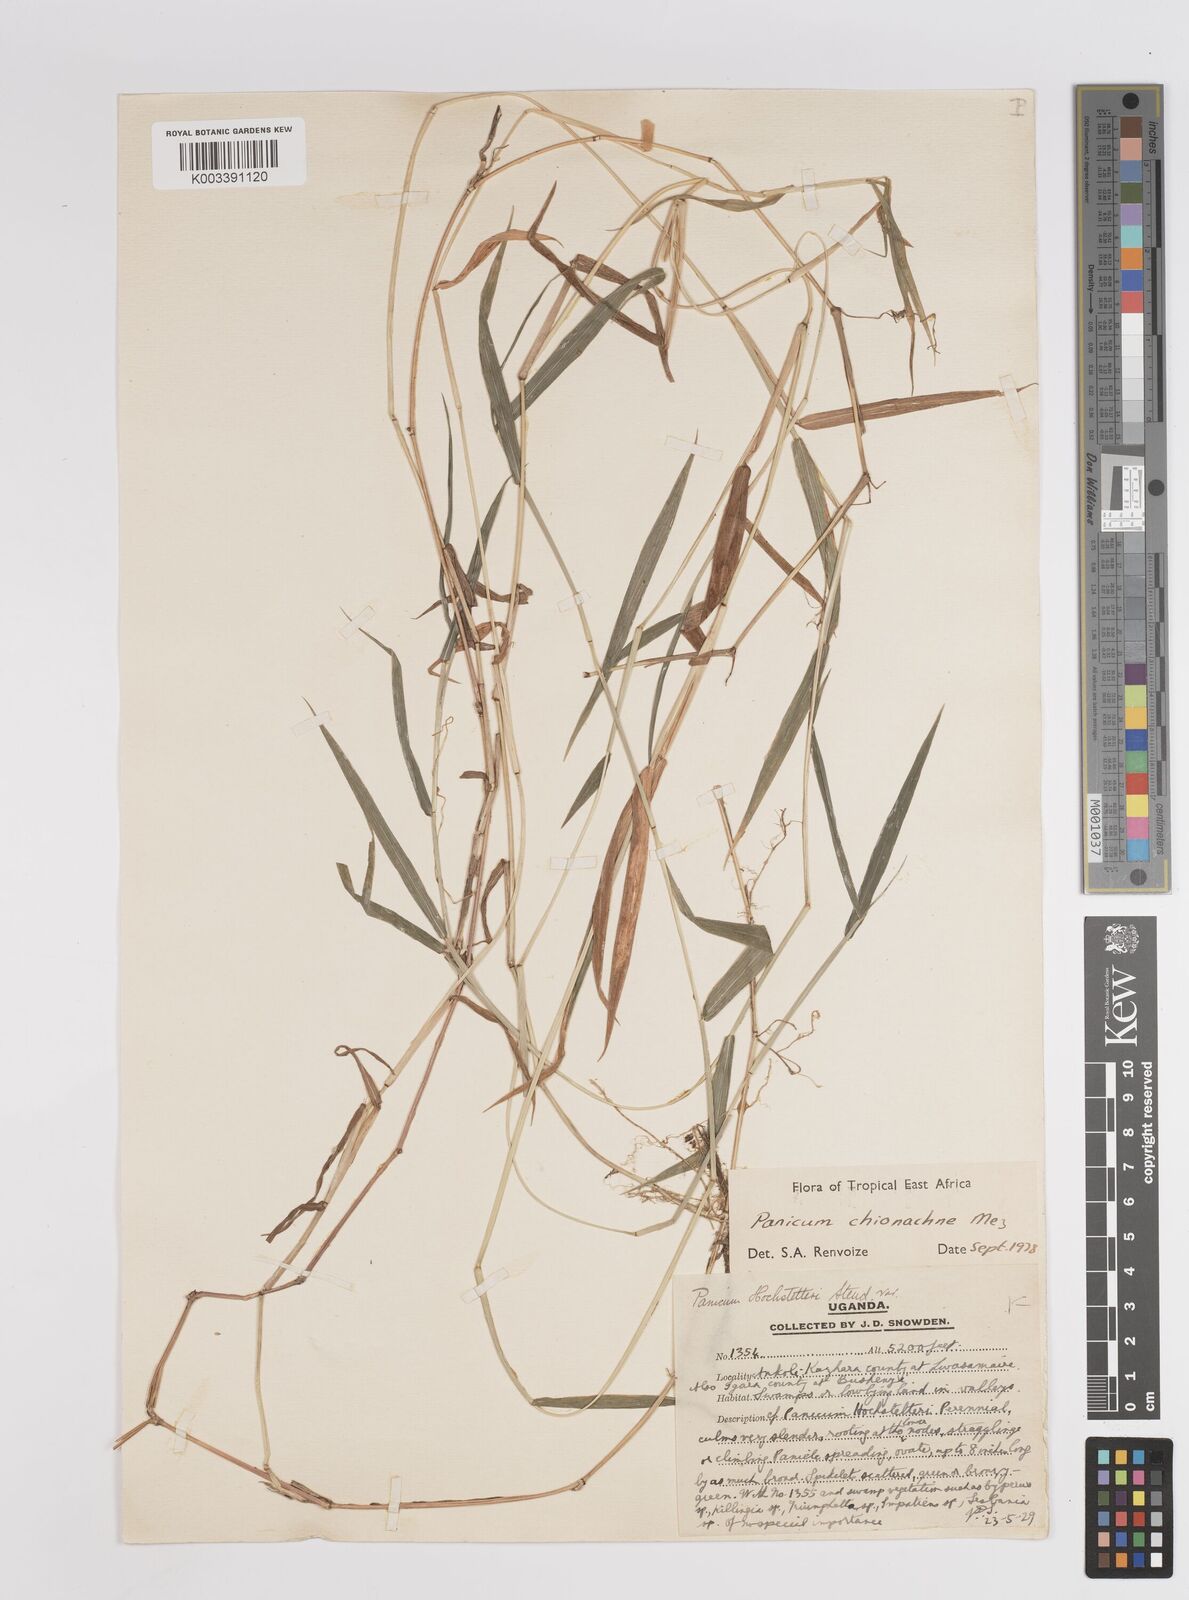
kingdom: Plantae
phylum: Tracheophyta
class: Liliopsida
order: Poales
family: Poaceae
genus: Panicum
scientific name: Panicum chionachne
